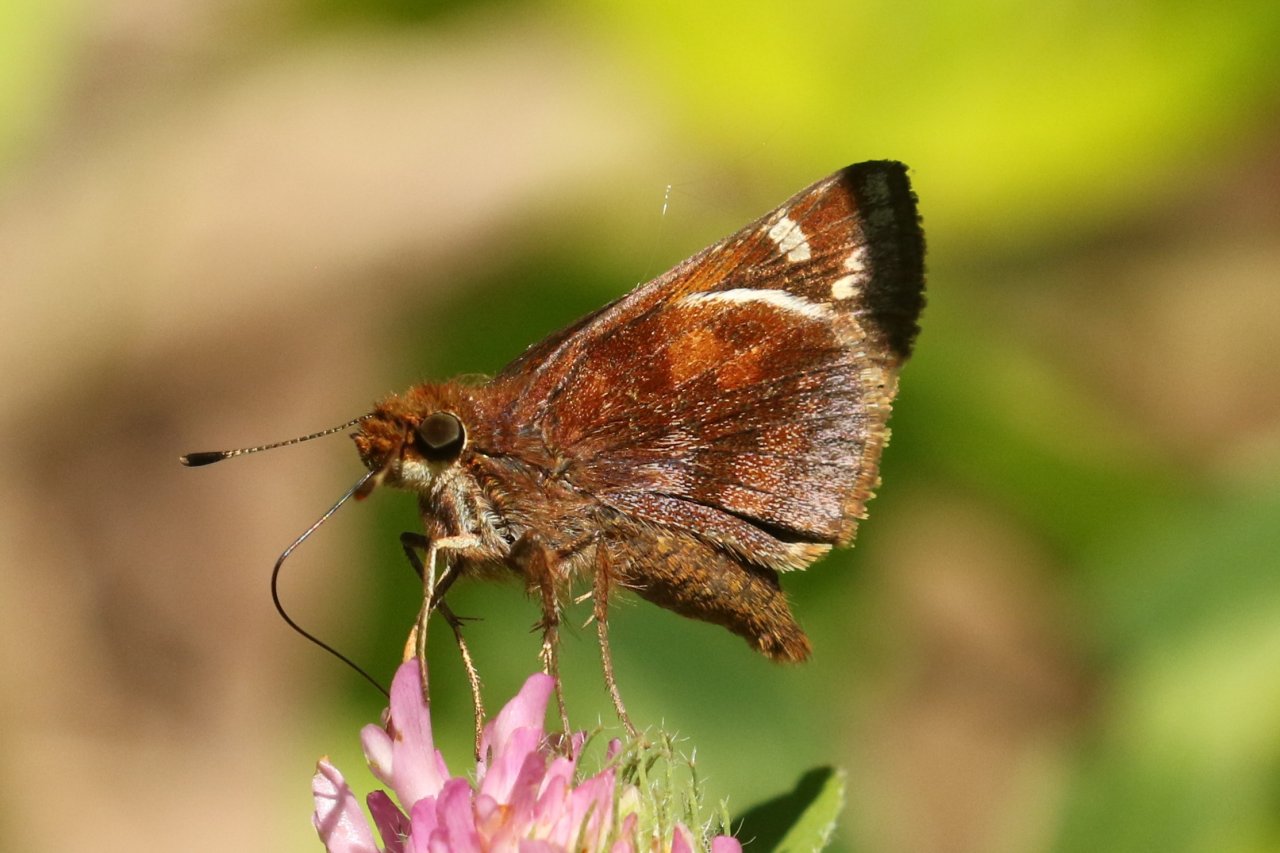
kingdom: Animalia
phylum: Arthropoda
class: Insecta
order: Lepidoptera
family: Hesperiidae
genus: Lon
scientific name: Lon zabulon
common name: Zabulon Skipper
